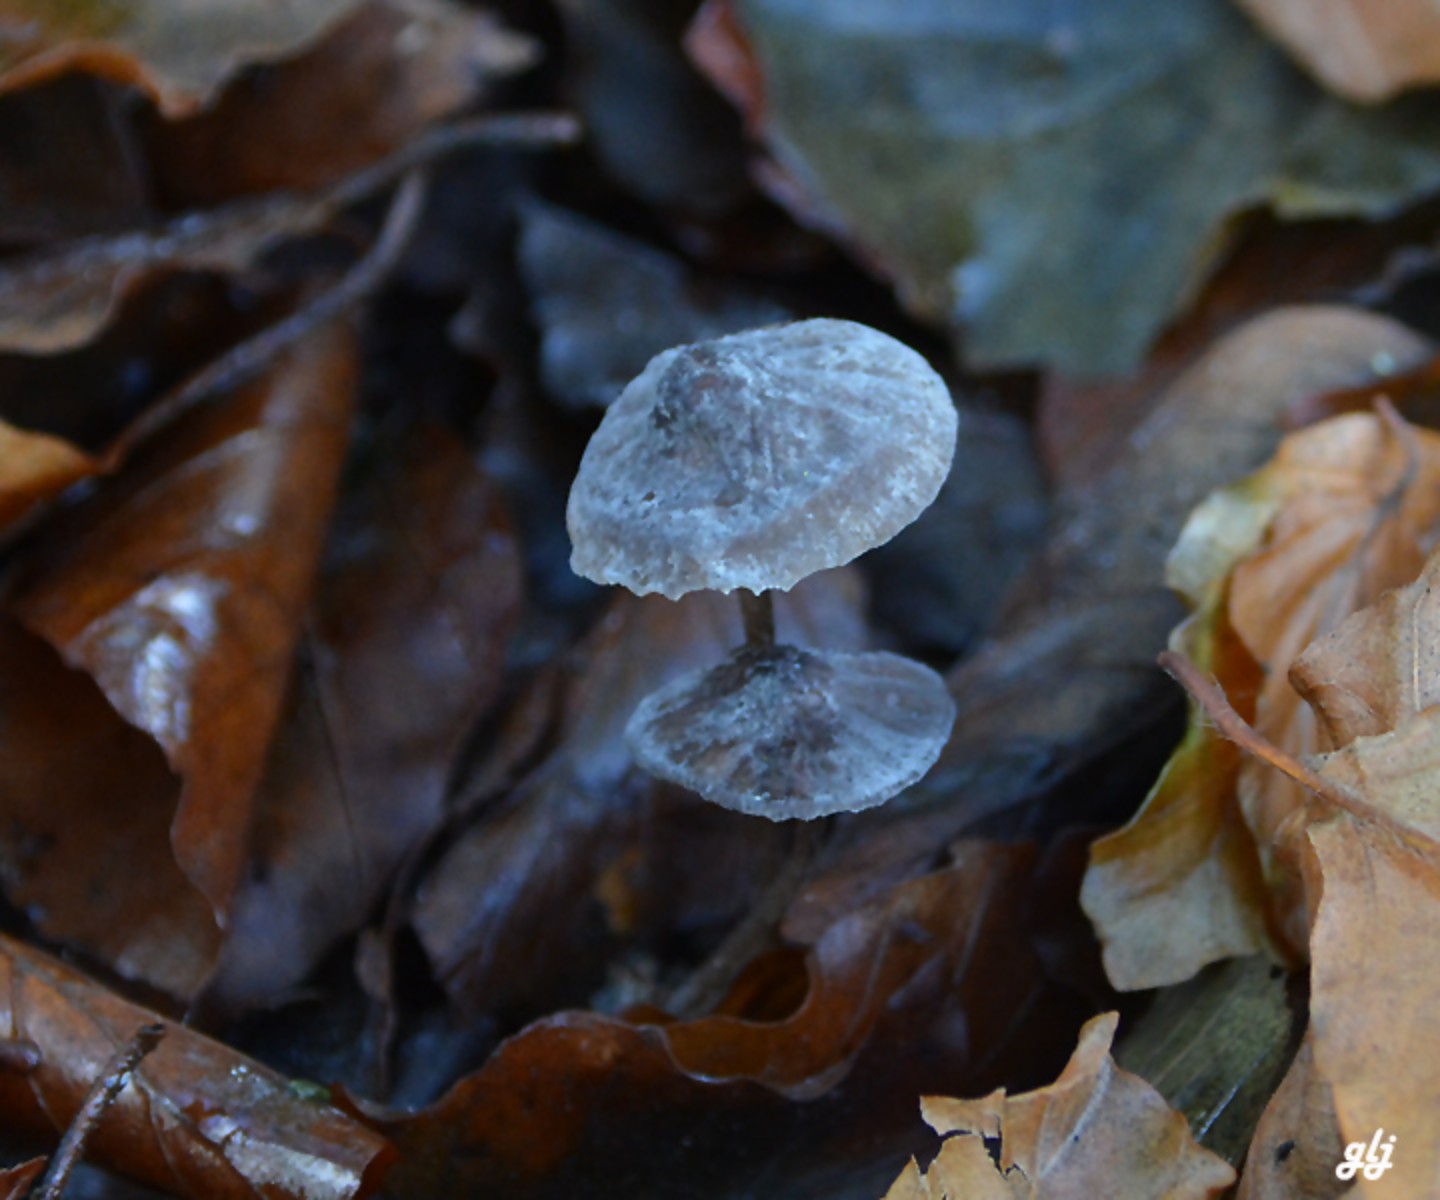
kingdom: Fungi
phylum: Basidiomycota
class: Agaricomycetes
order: Agaricales
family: Mycenaceae
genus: Mycena
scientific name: Mycena galopus
